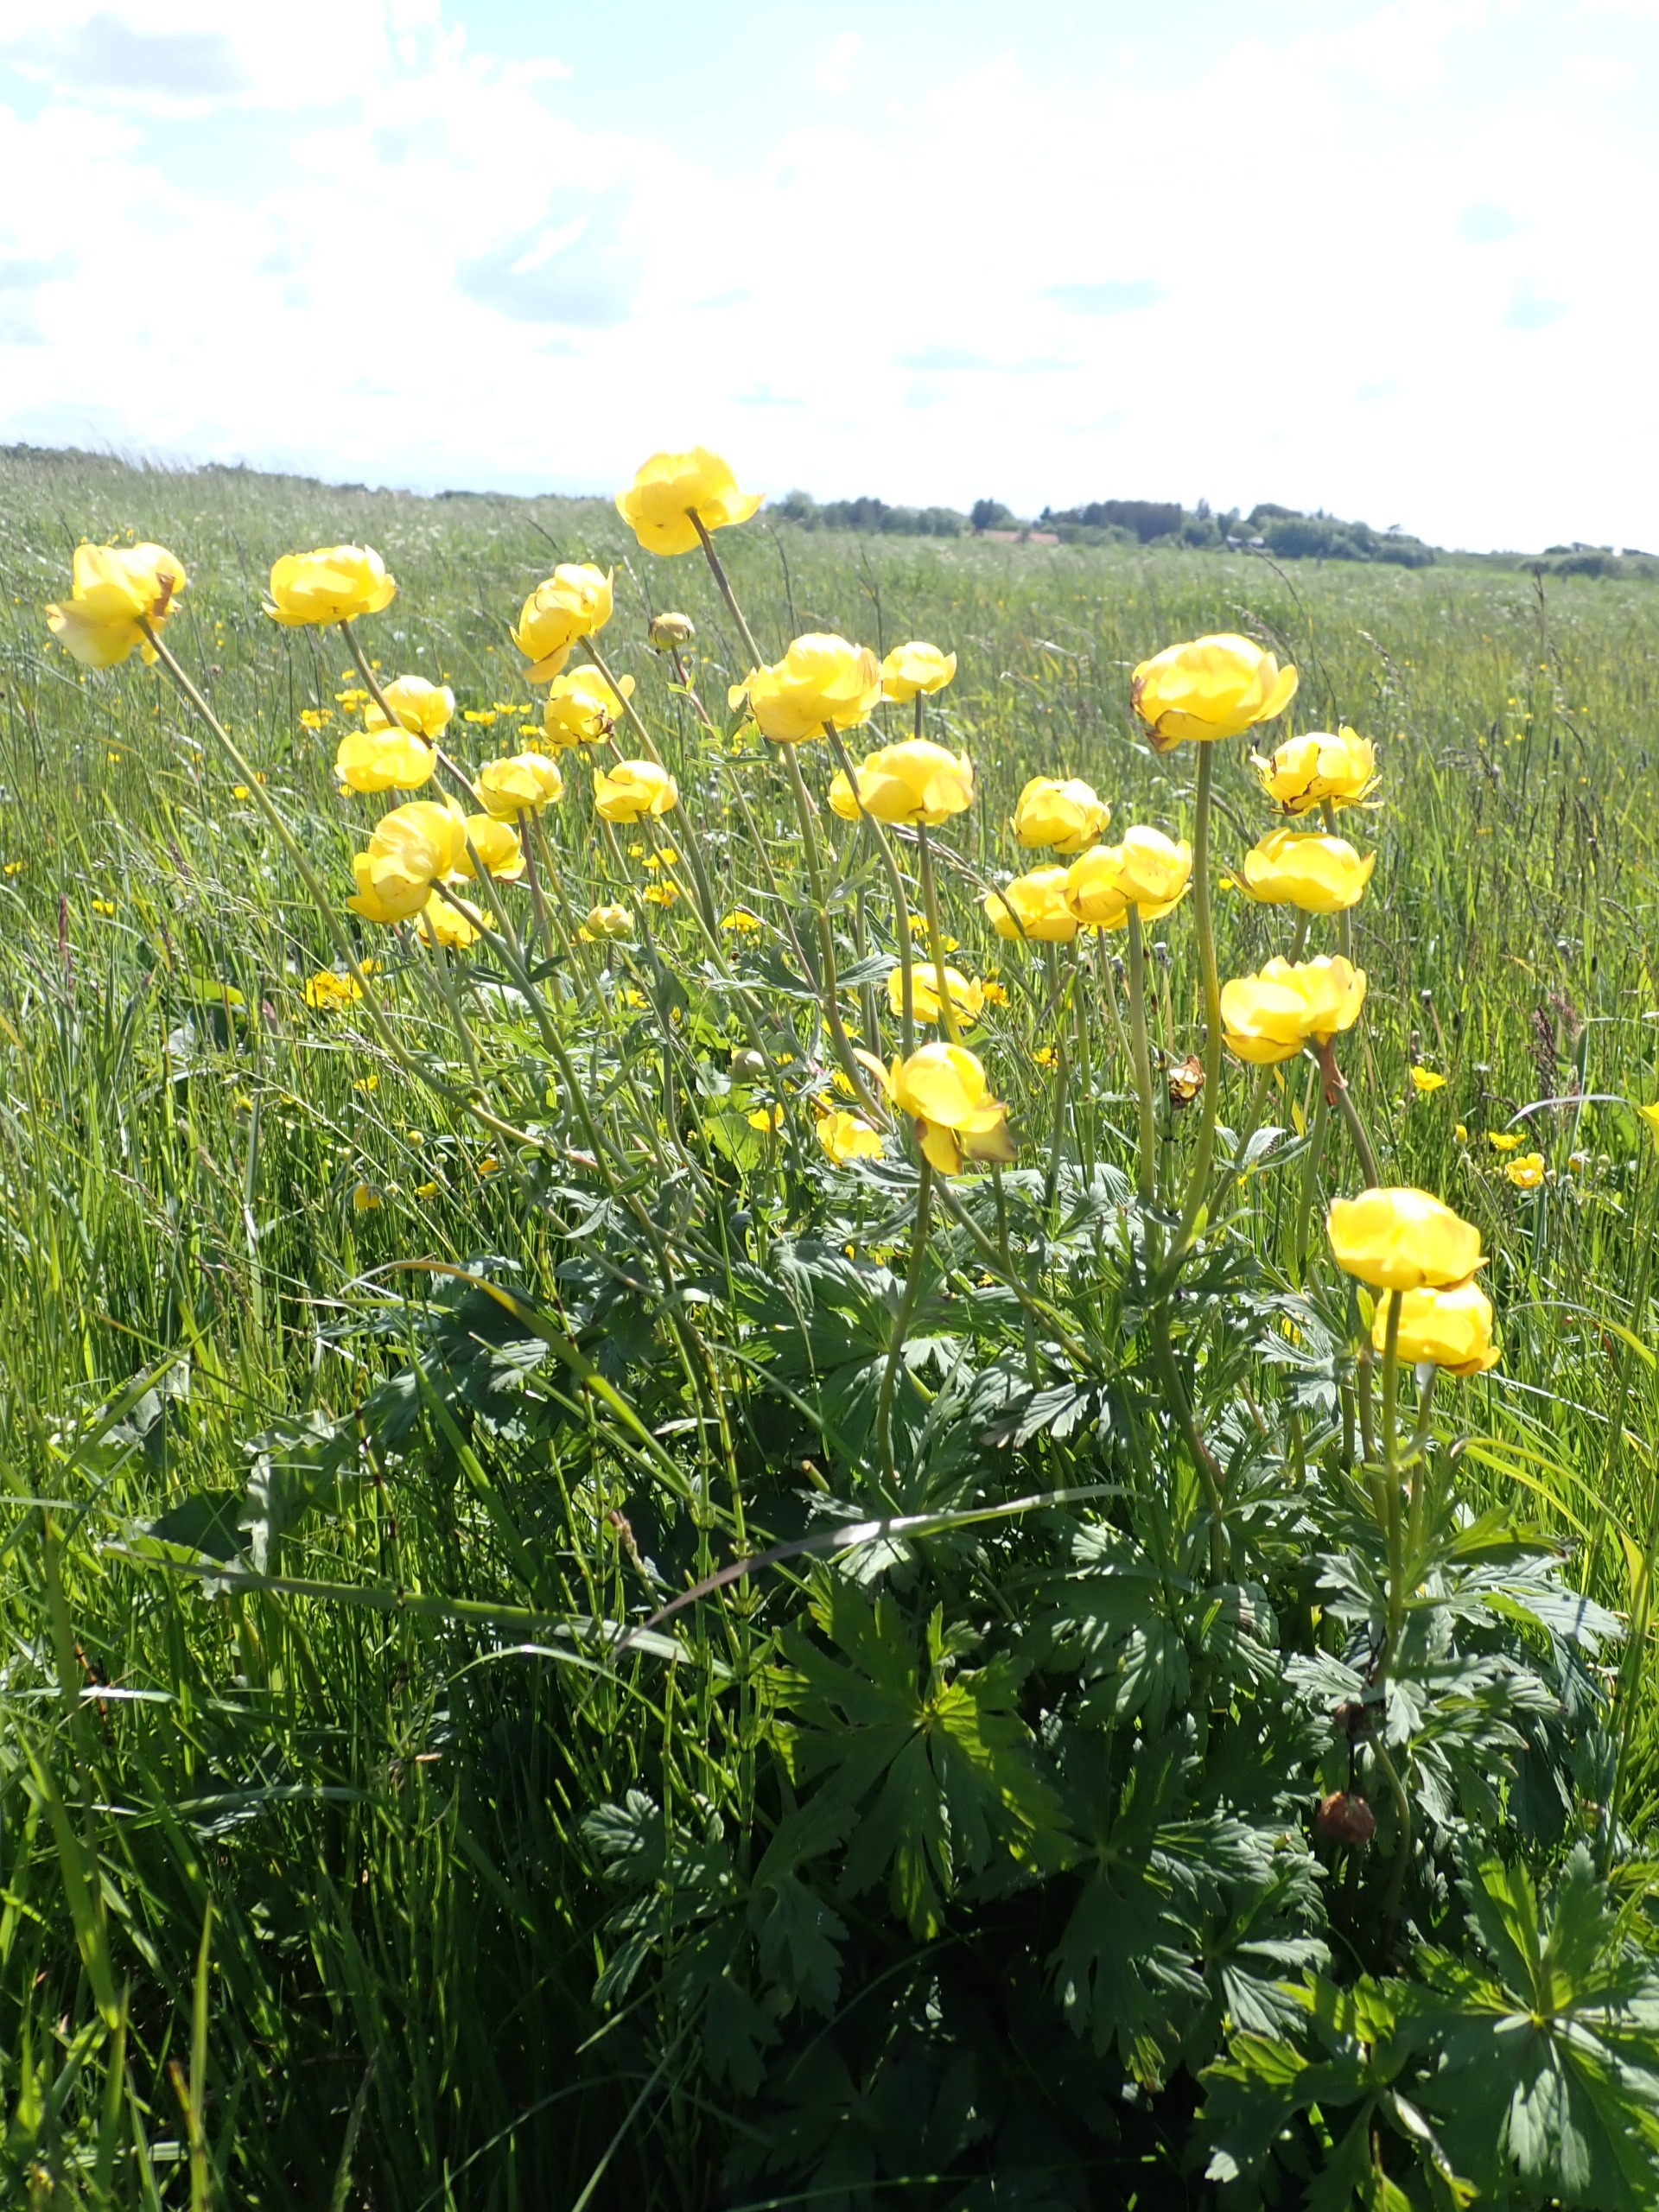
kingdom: Plantae
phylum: Tracheophyta
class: Magnoliopsida
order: Ranunculales
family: Ranunculaceae
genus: Trollius
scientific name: Trollius europaeus
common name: Engblomme
